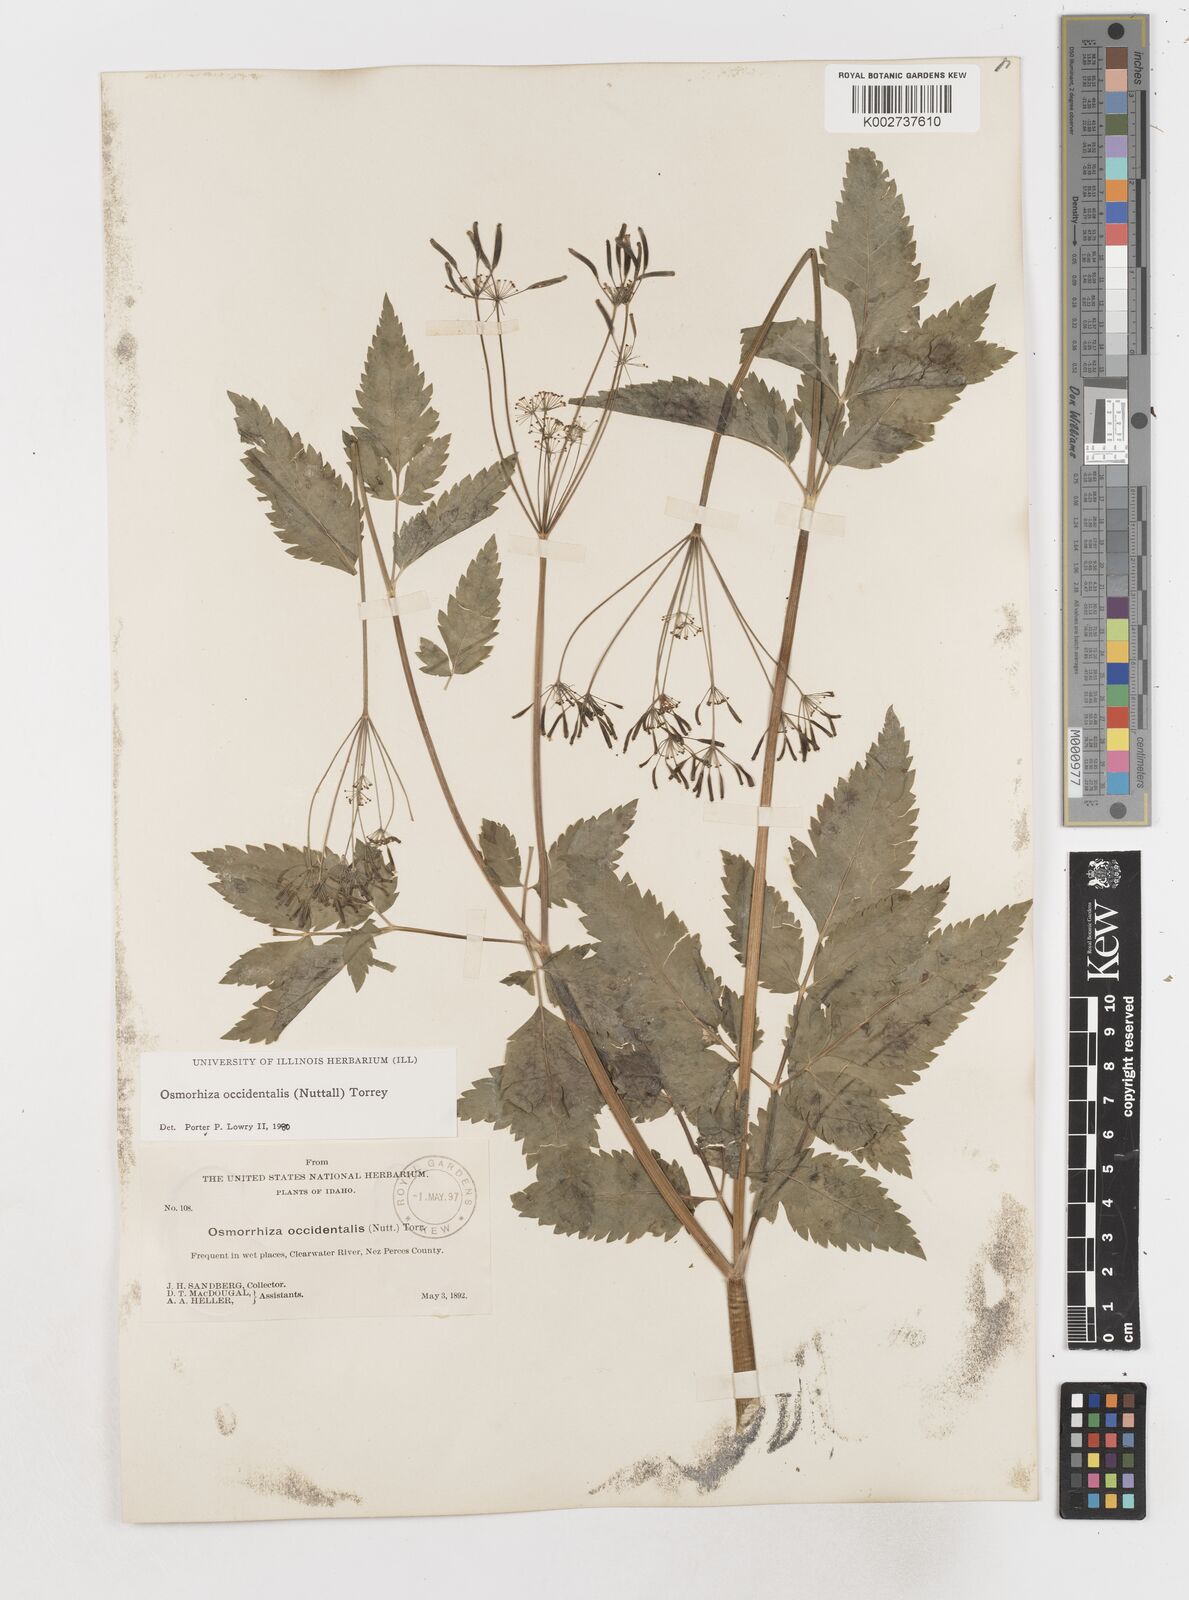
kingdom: Plantae
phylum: Tracheophyta
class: Magnoliopsida
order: Apiales
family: Apiaceae
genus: Osmorhiza
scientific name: Osmorhiza occidentalis
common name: Western sweet cicely
